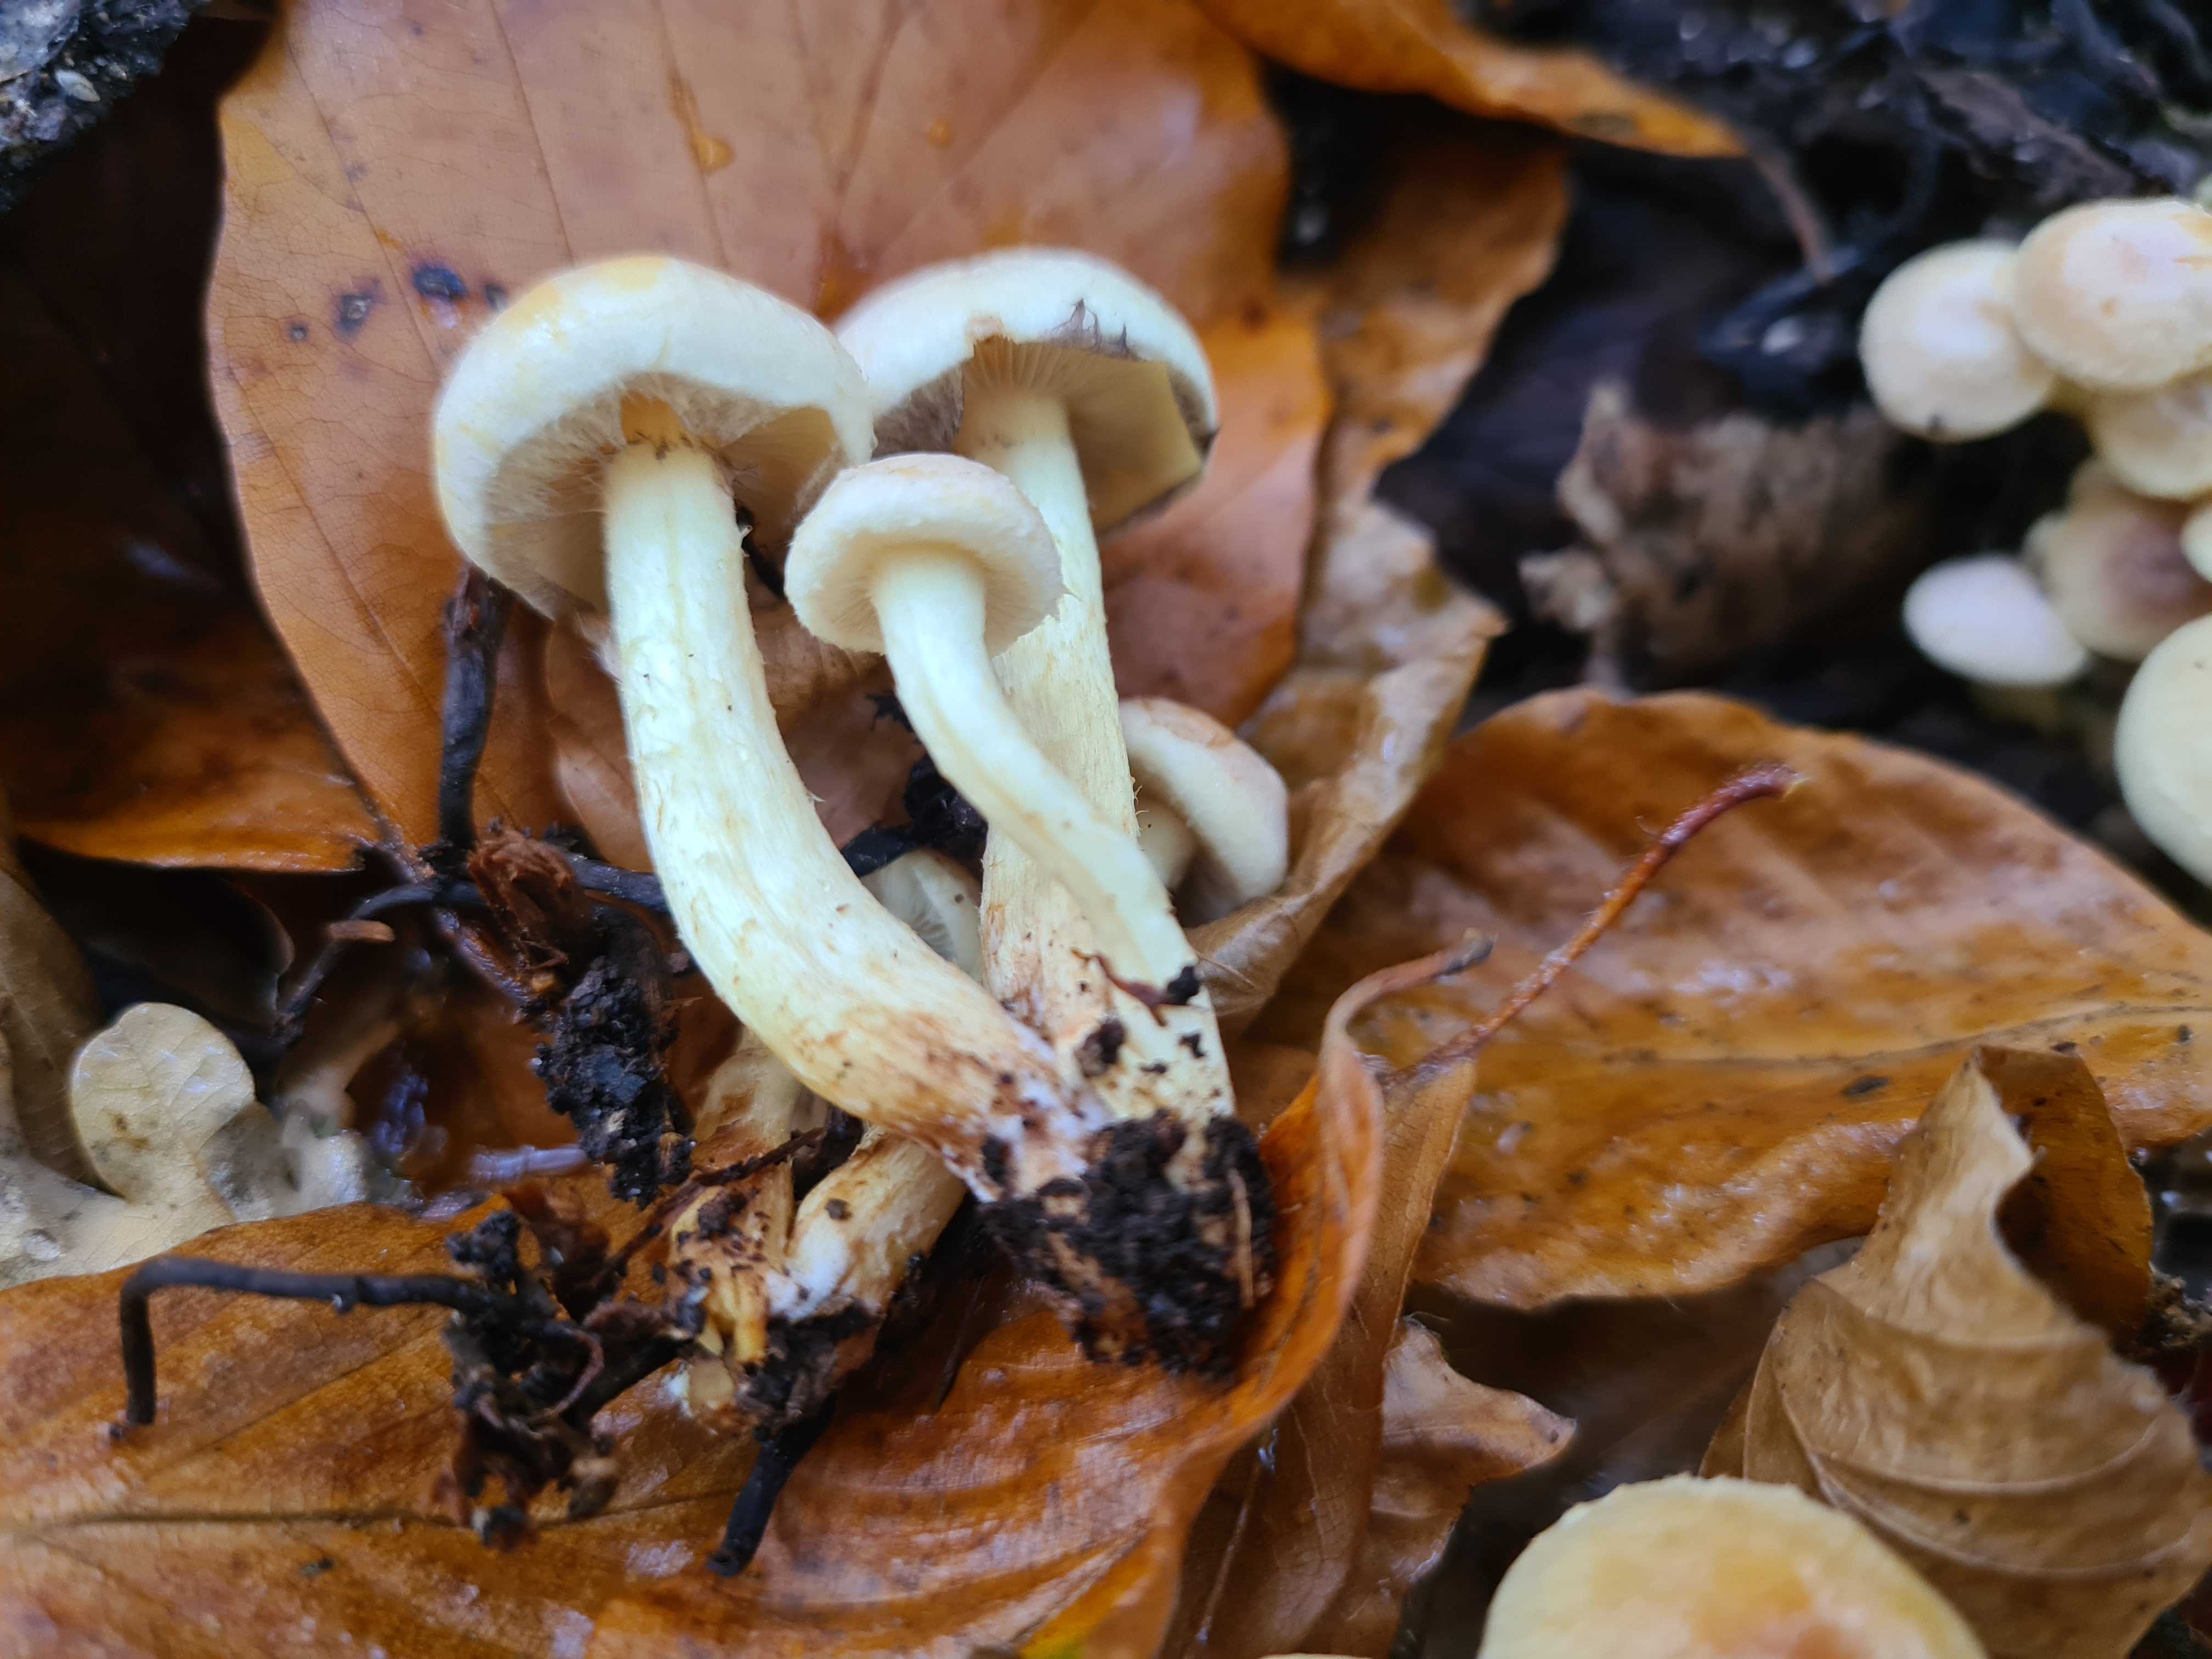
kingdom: Fungi
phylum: Basidiomycota
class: Agaricomycetes
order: Agaricales
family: Strophariaceae
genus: Hypholoma
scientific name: Hypholoma fasciculare
